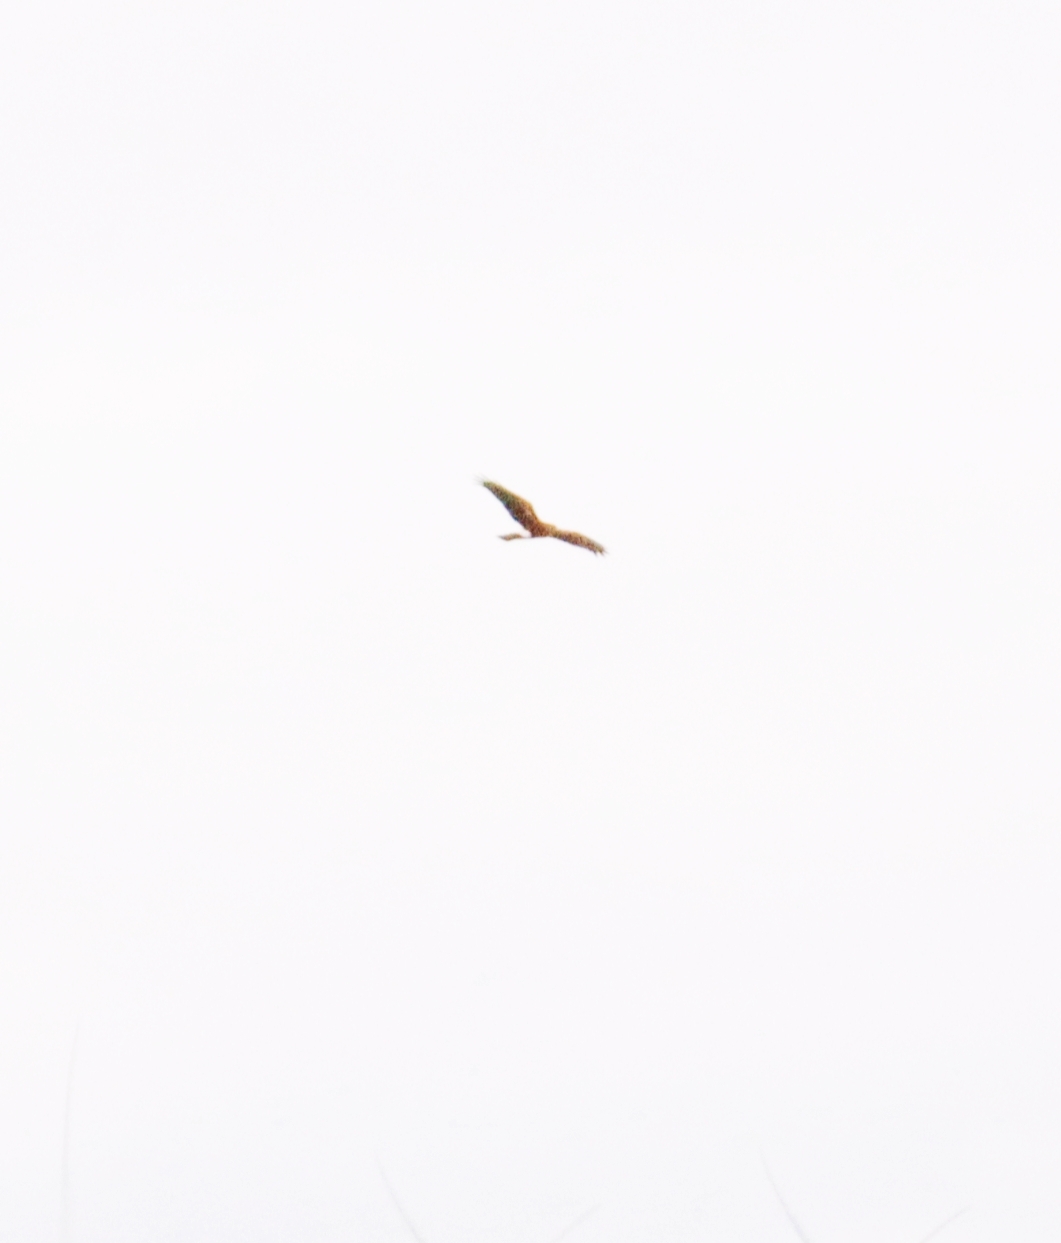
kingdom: Animalia
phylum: Chordata
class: Aves
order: Accipitriformes
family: Accipitridae
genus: Circus
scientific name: Circus cyaneus
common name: Blå kærhøg
